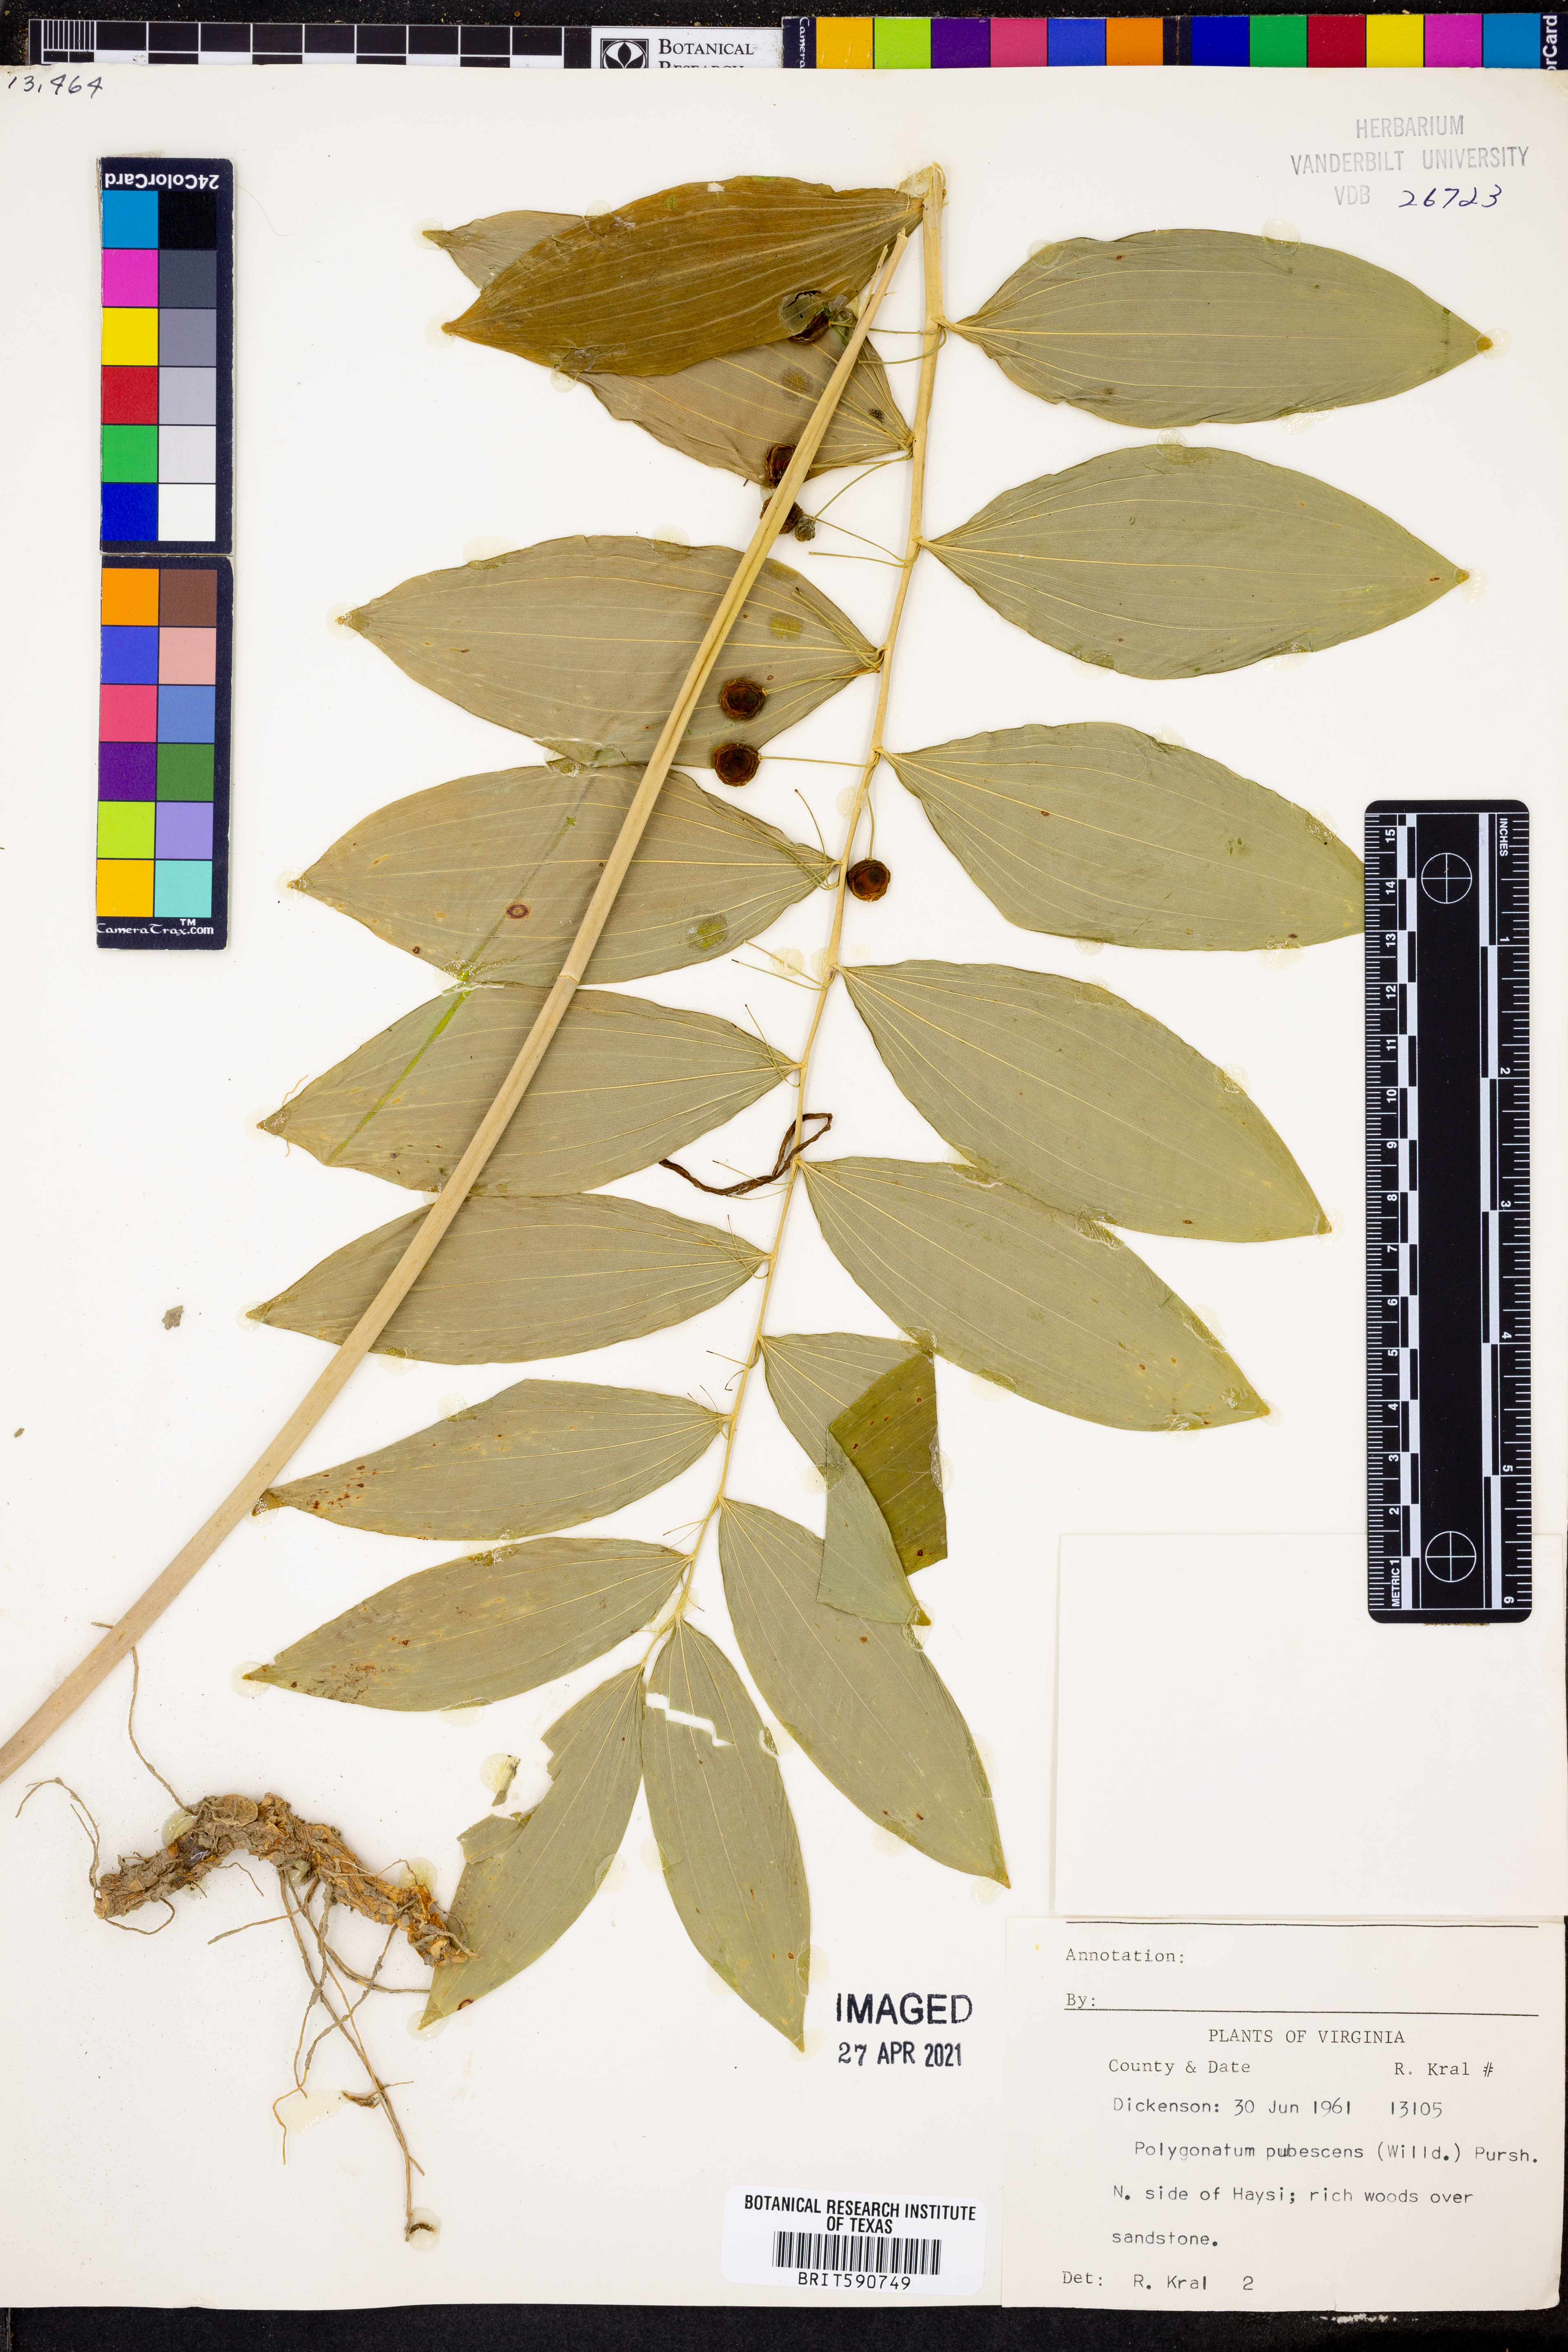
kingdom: Plantae
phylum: Tracheophyta
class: Liliopsida
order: Asparagales
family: Asparagaceae
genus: Polygonatum
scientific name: Polygonatum pubescens
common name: Downy solomon's seal
